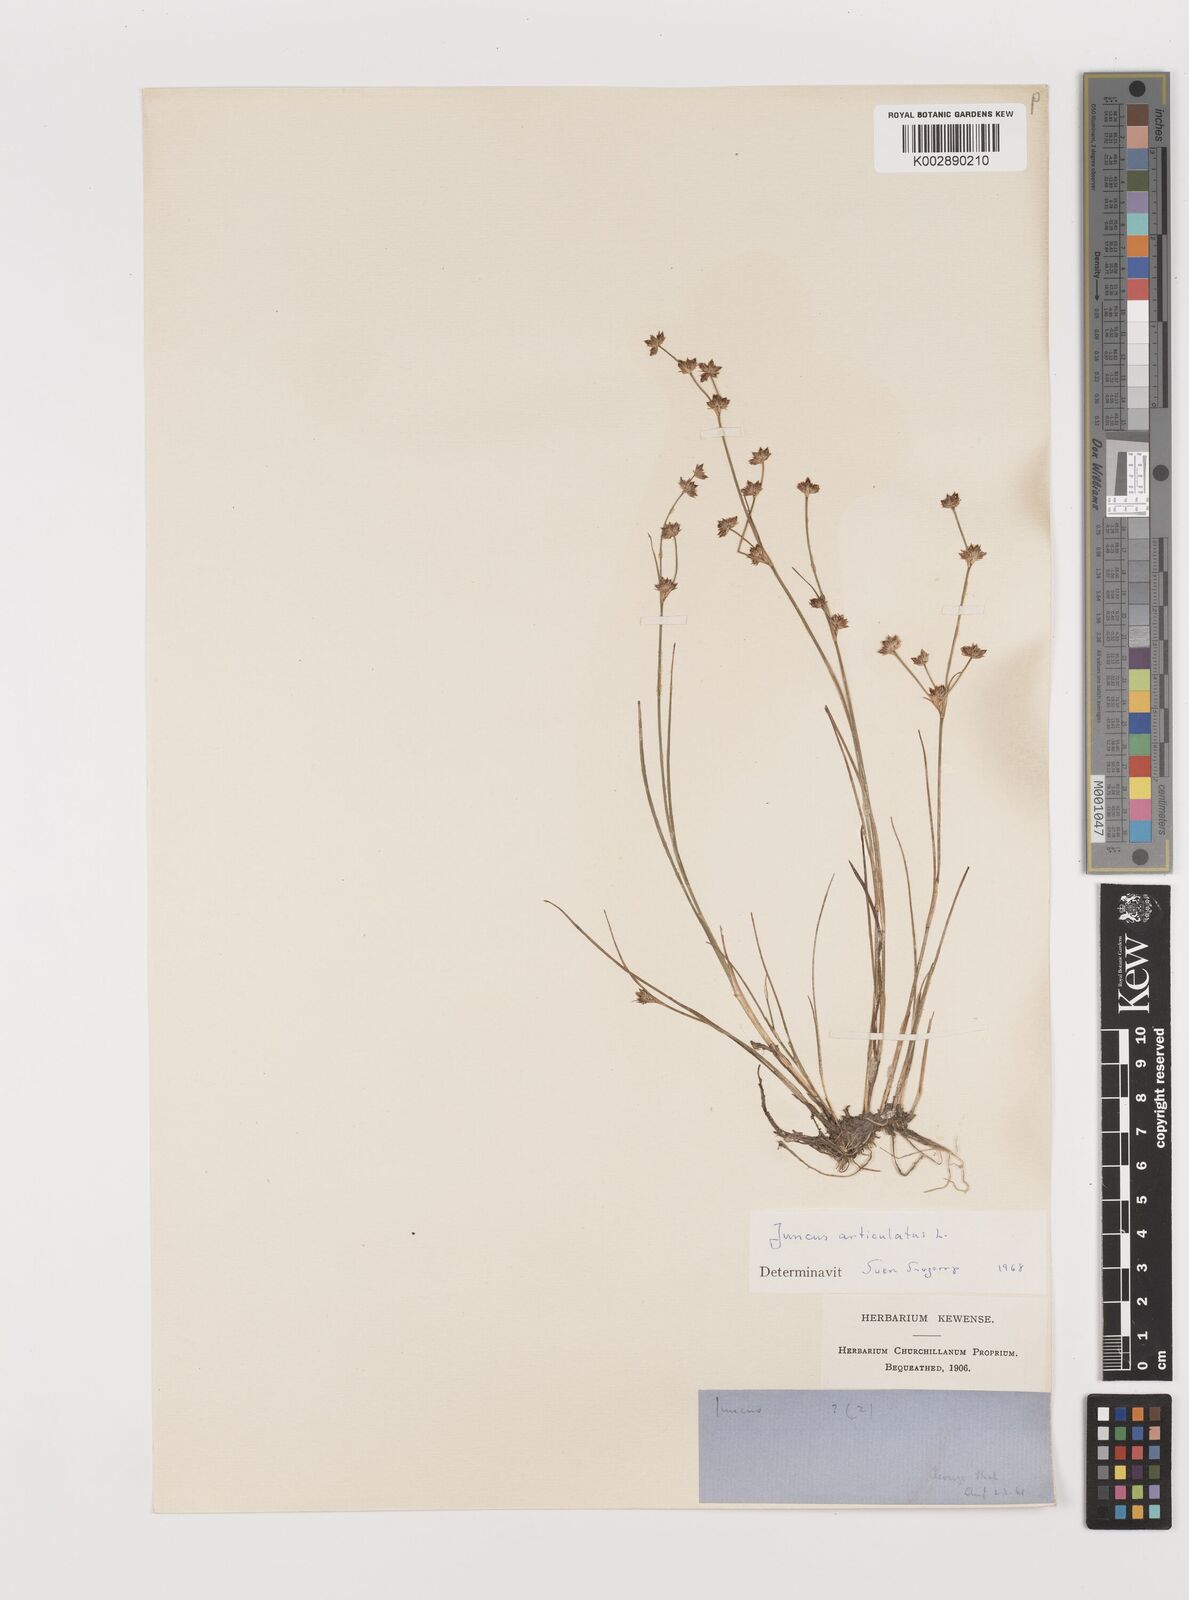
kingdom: Plantae
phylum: Tracheophyta
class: Liliopsida
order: Poales
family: Juncaceae
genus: Juncus
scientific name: Juncus articulatus
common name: Jointed rush
